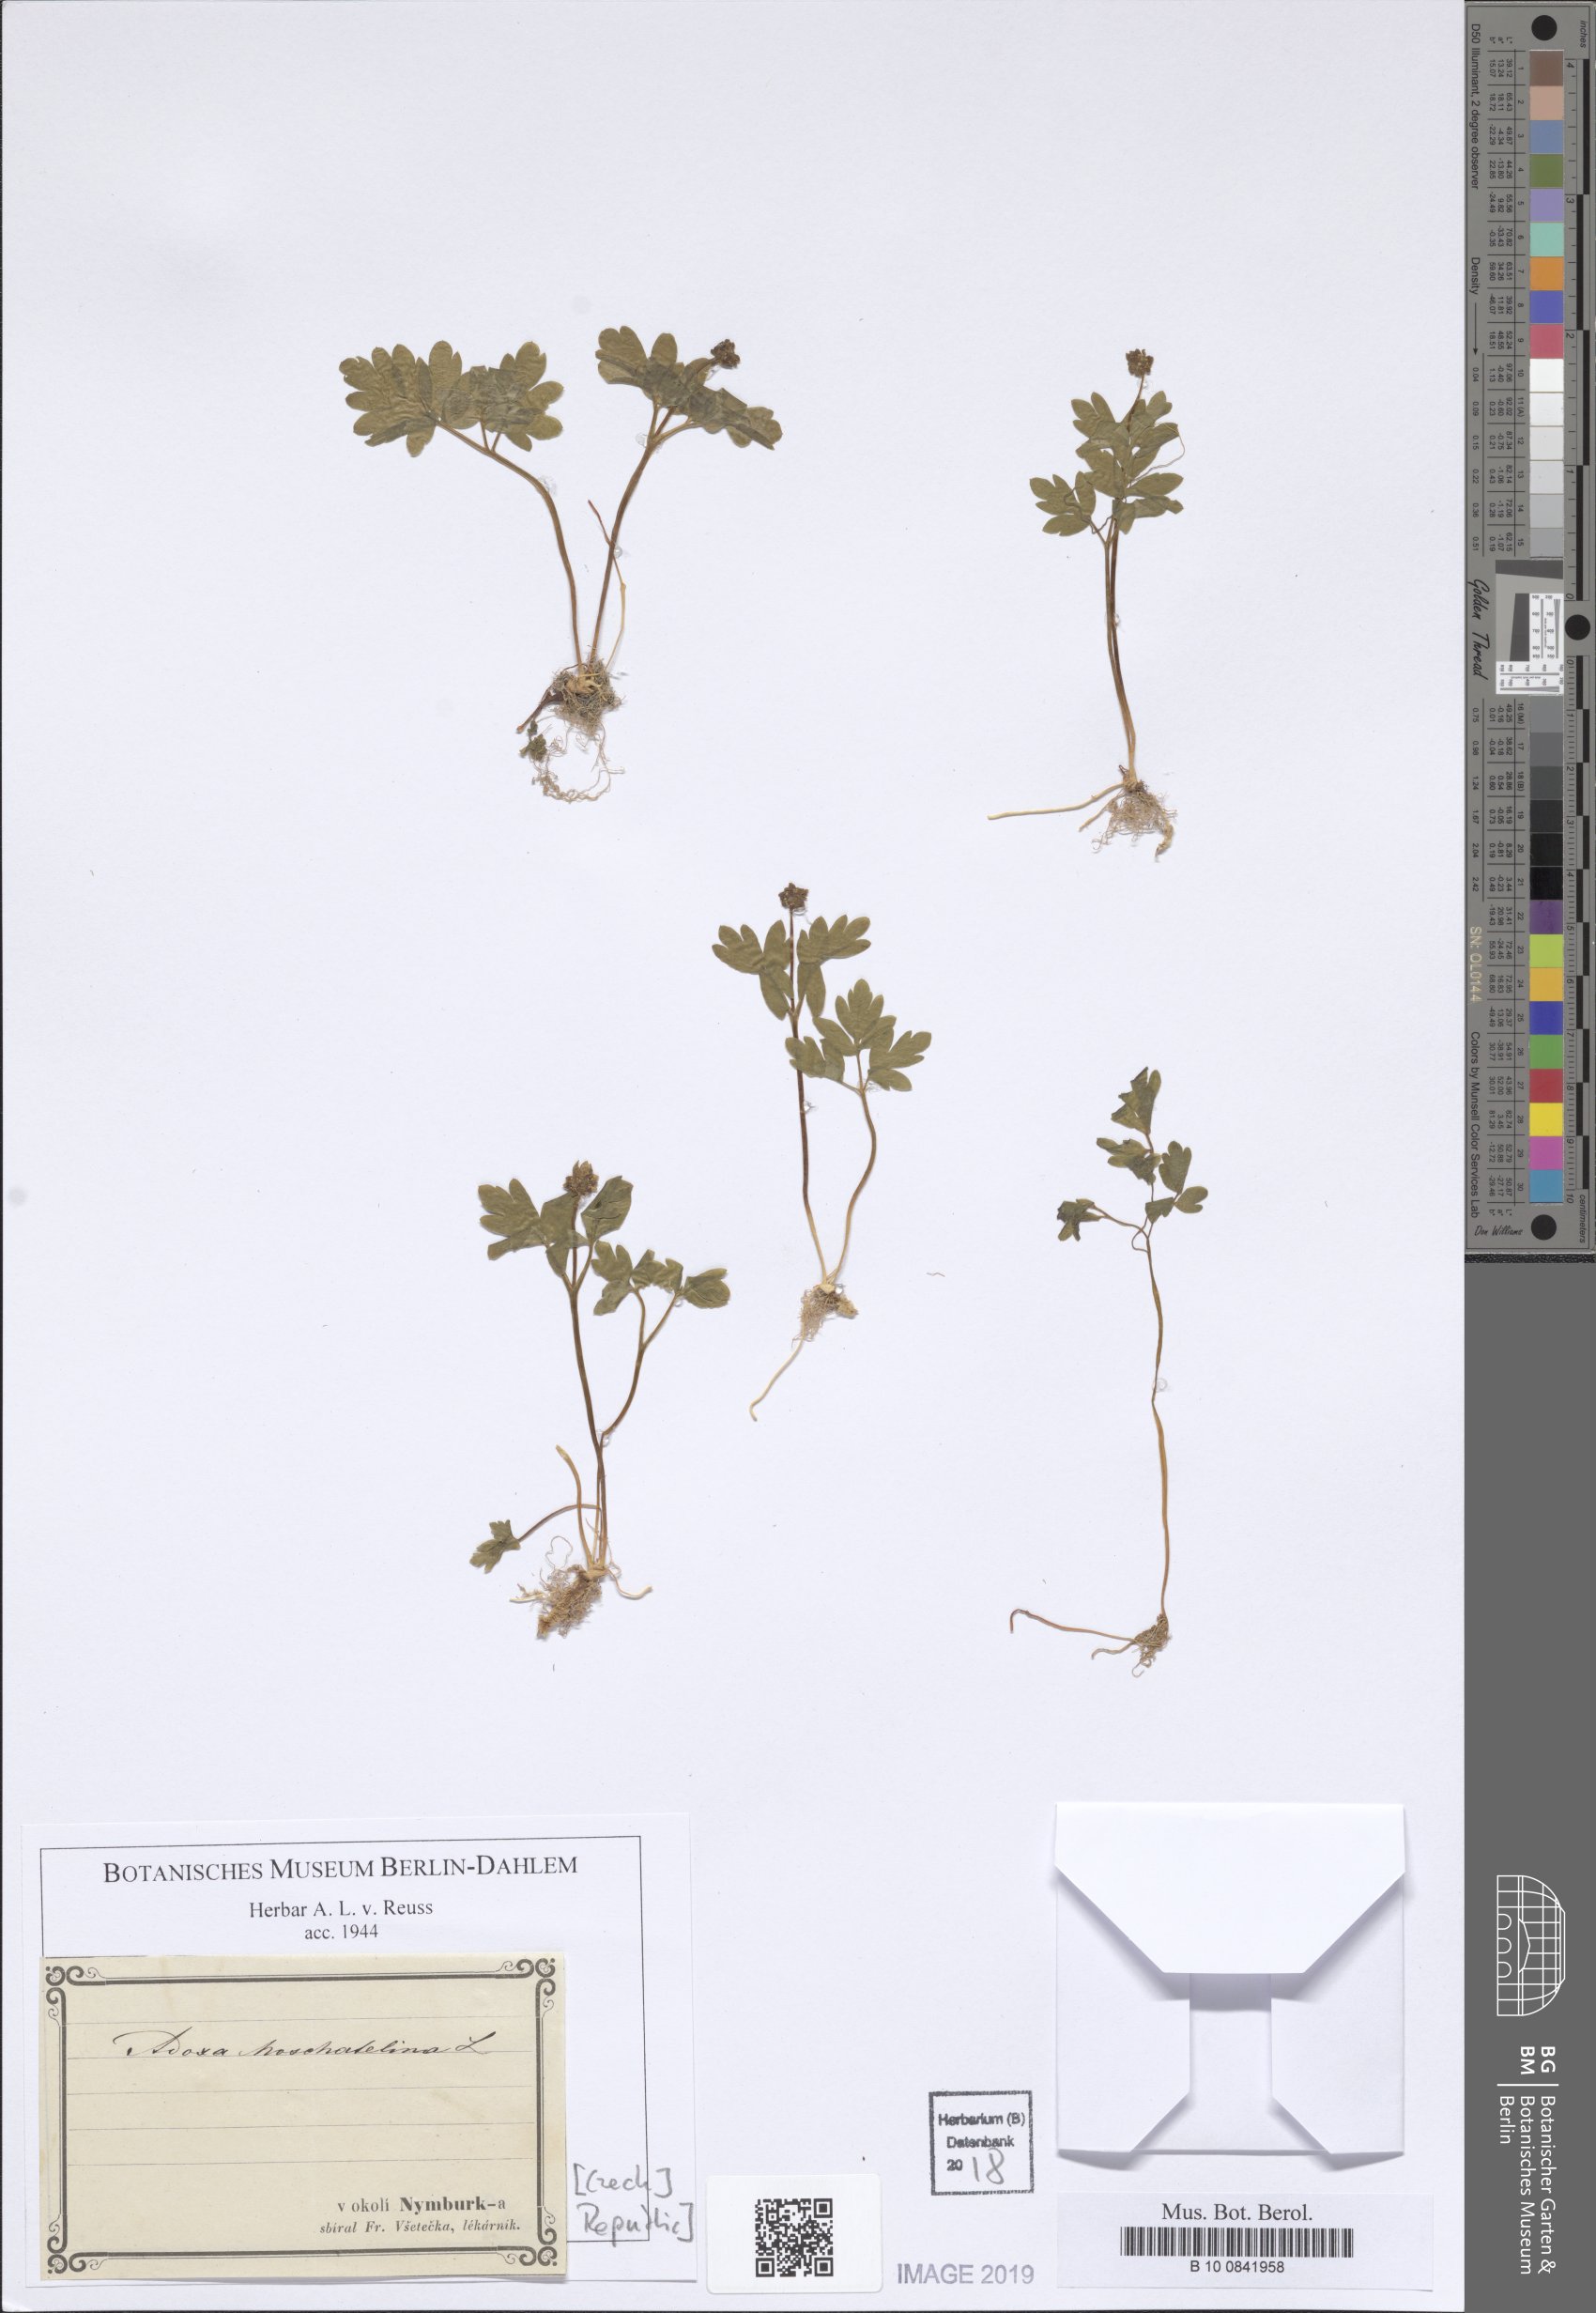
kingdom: Plantae
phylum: Tracheophyta
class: Magnoliopsida
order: Dipsacales
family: Viburnaceae
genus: Adoxa
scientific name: Adoxa moschatellina
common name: Moschatel
